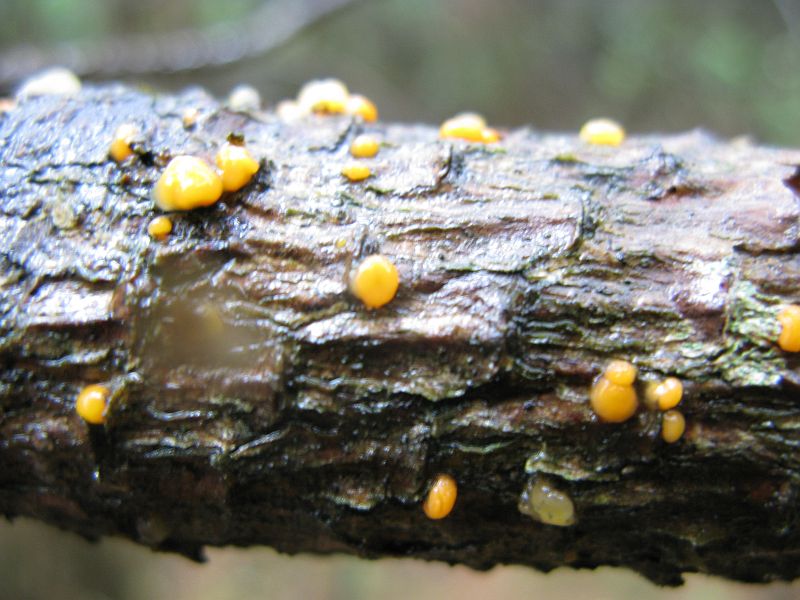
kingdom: Fungi
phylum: Basidiomycota
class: Dacrymycetes
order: Dacrymycetales
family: Dacrymycetaceae
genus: Dacrymyces
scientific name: Dacrymyces stillatus
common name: almindelig tåresvamp
